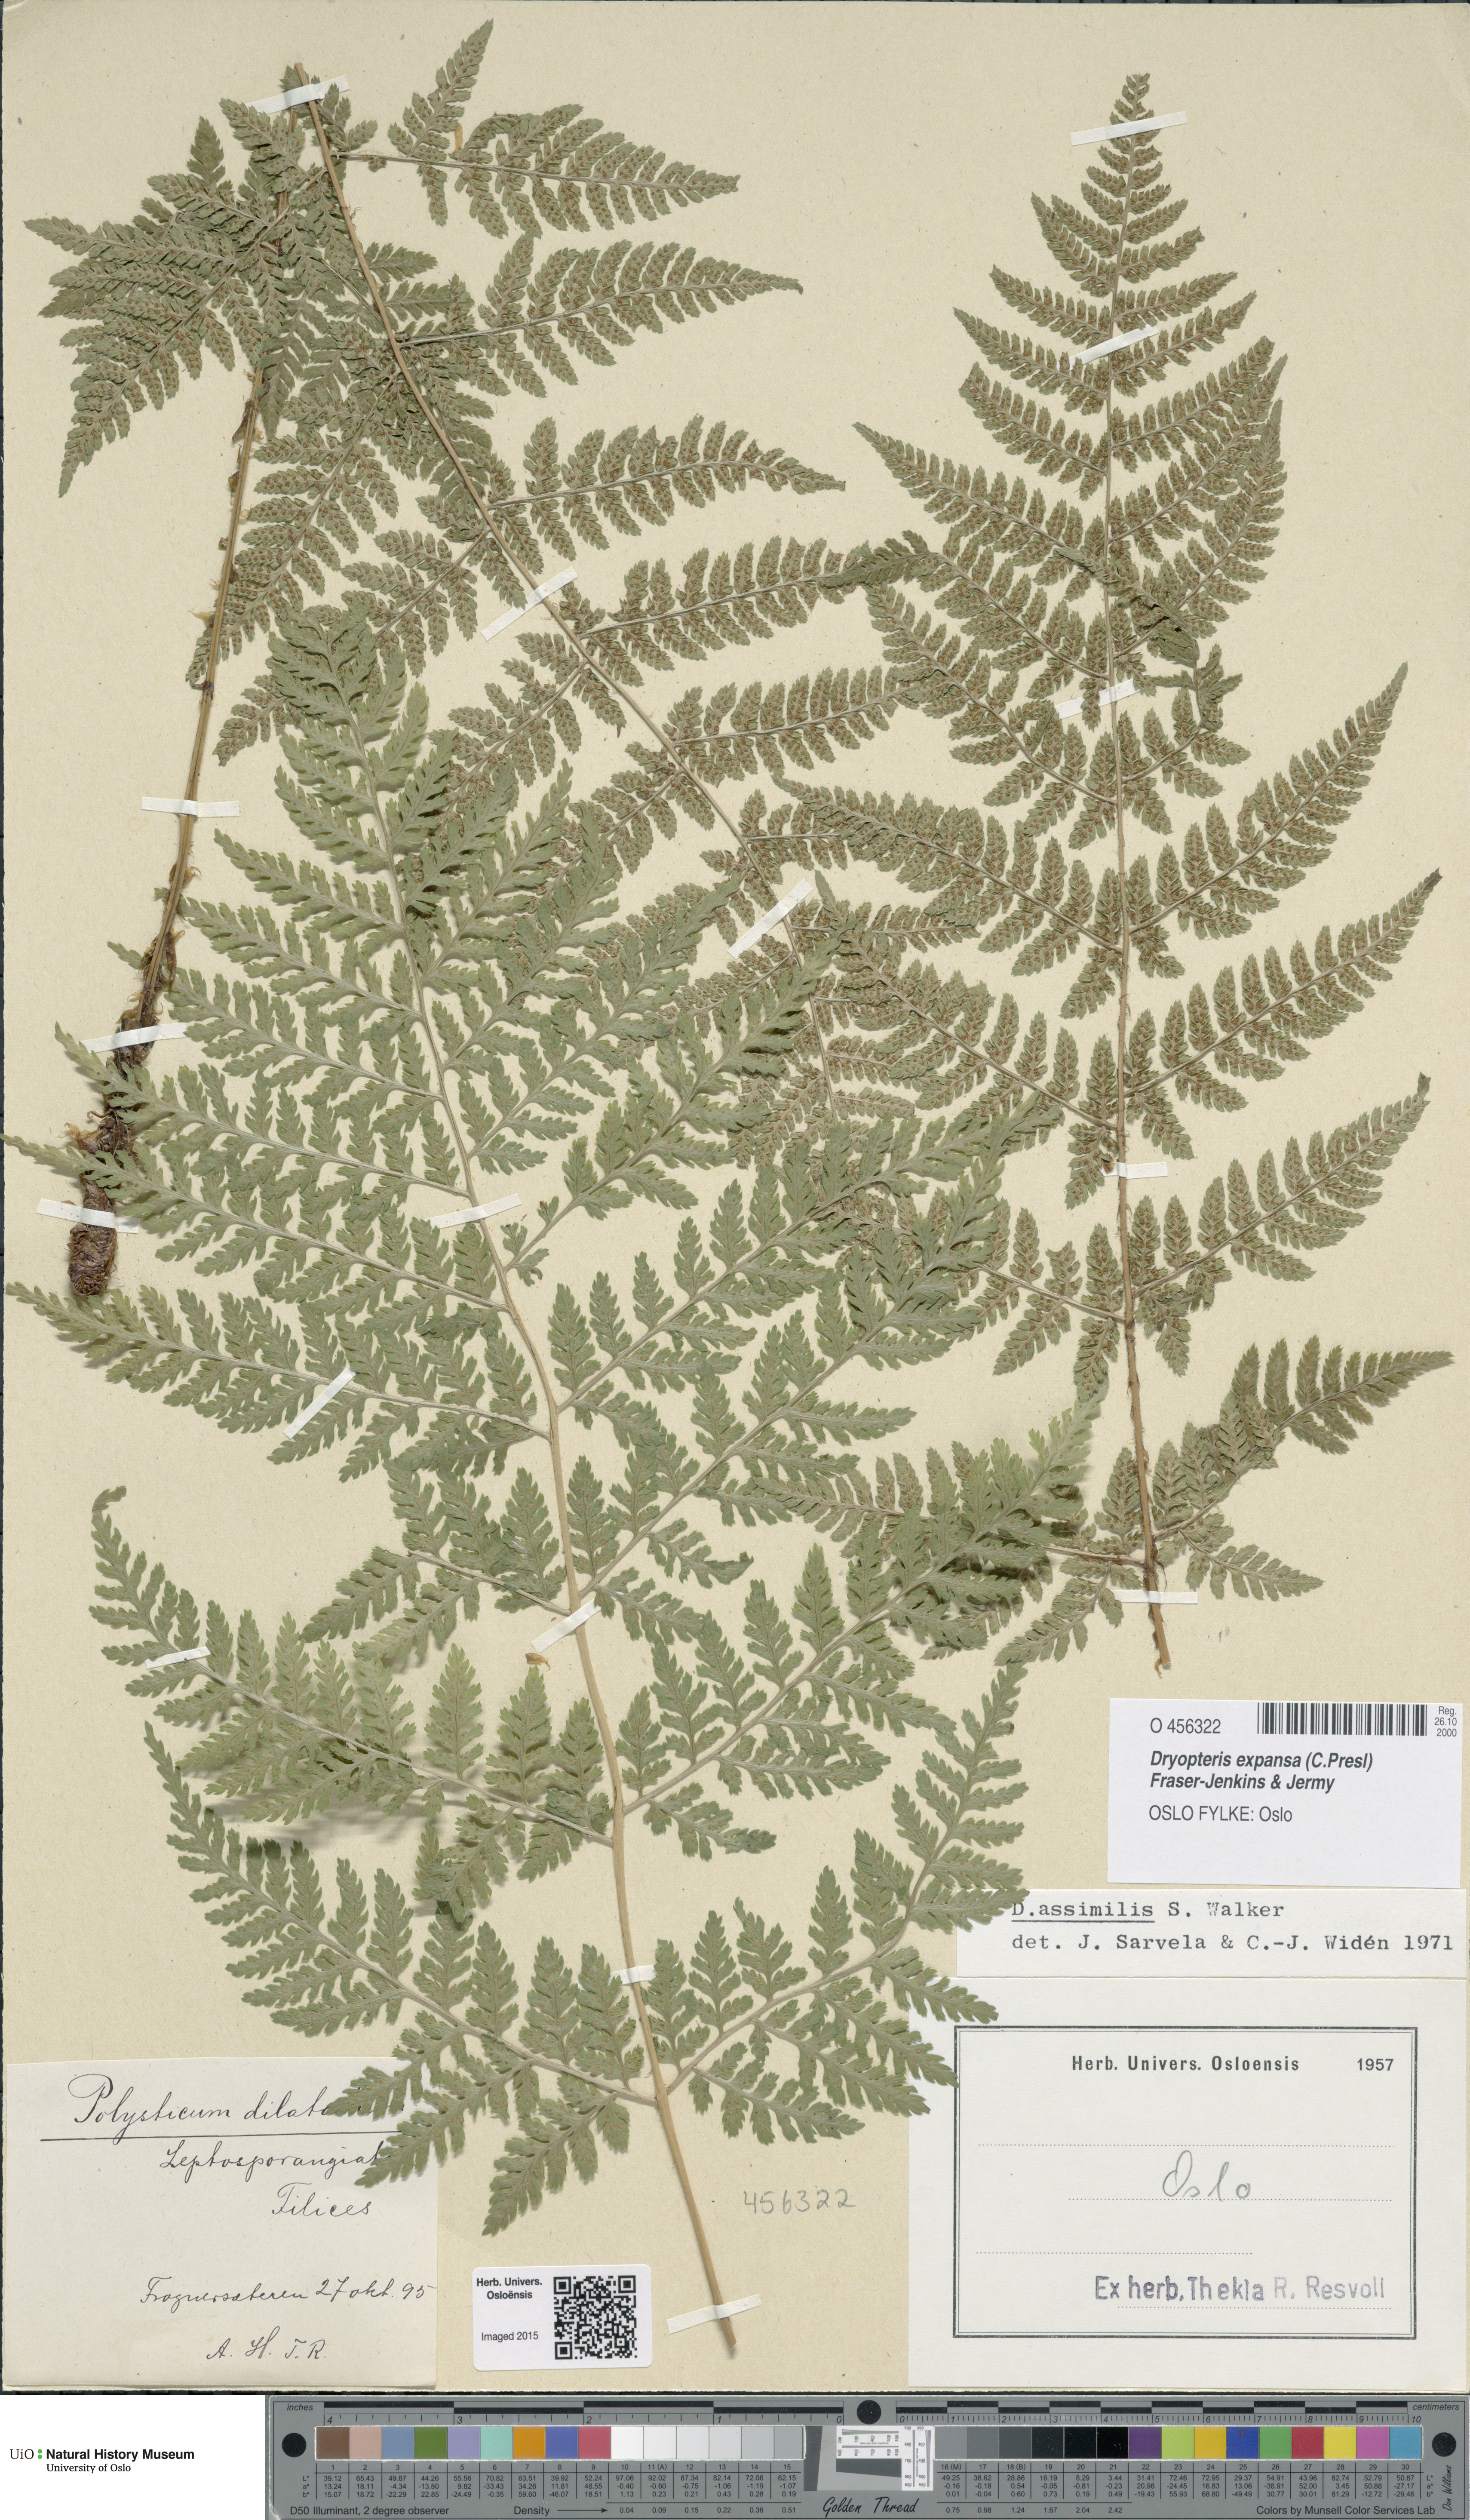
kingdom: Plantae
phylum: Tracheophyta
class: Polypodiopsida
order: Polypodiales
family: Dryopteridaceae
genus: Dryopteris
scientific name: Dryopteris expansa
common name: Northern buckler fern
